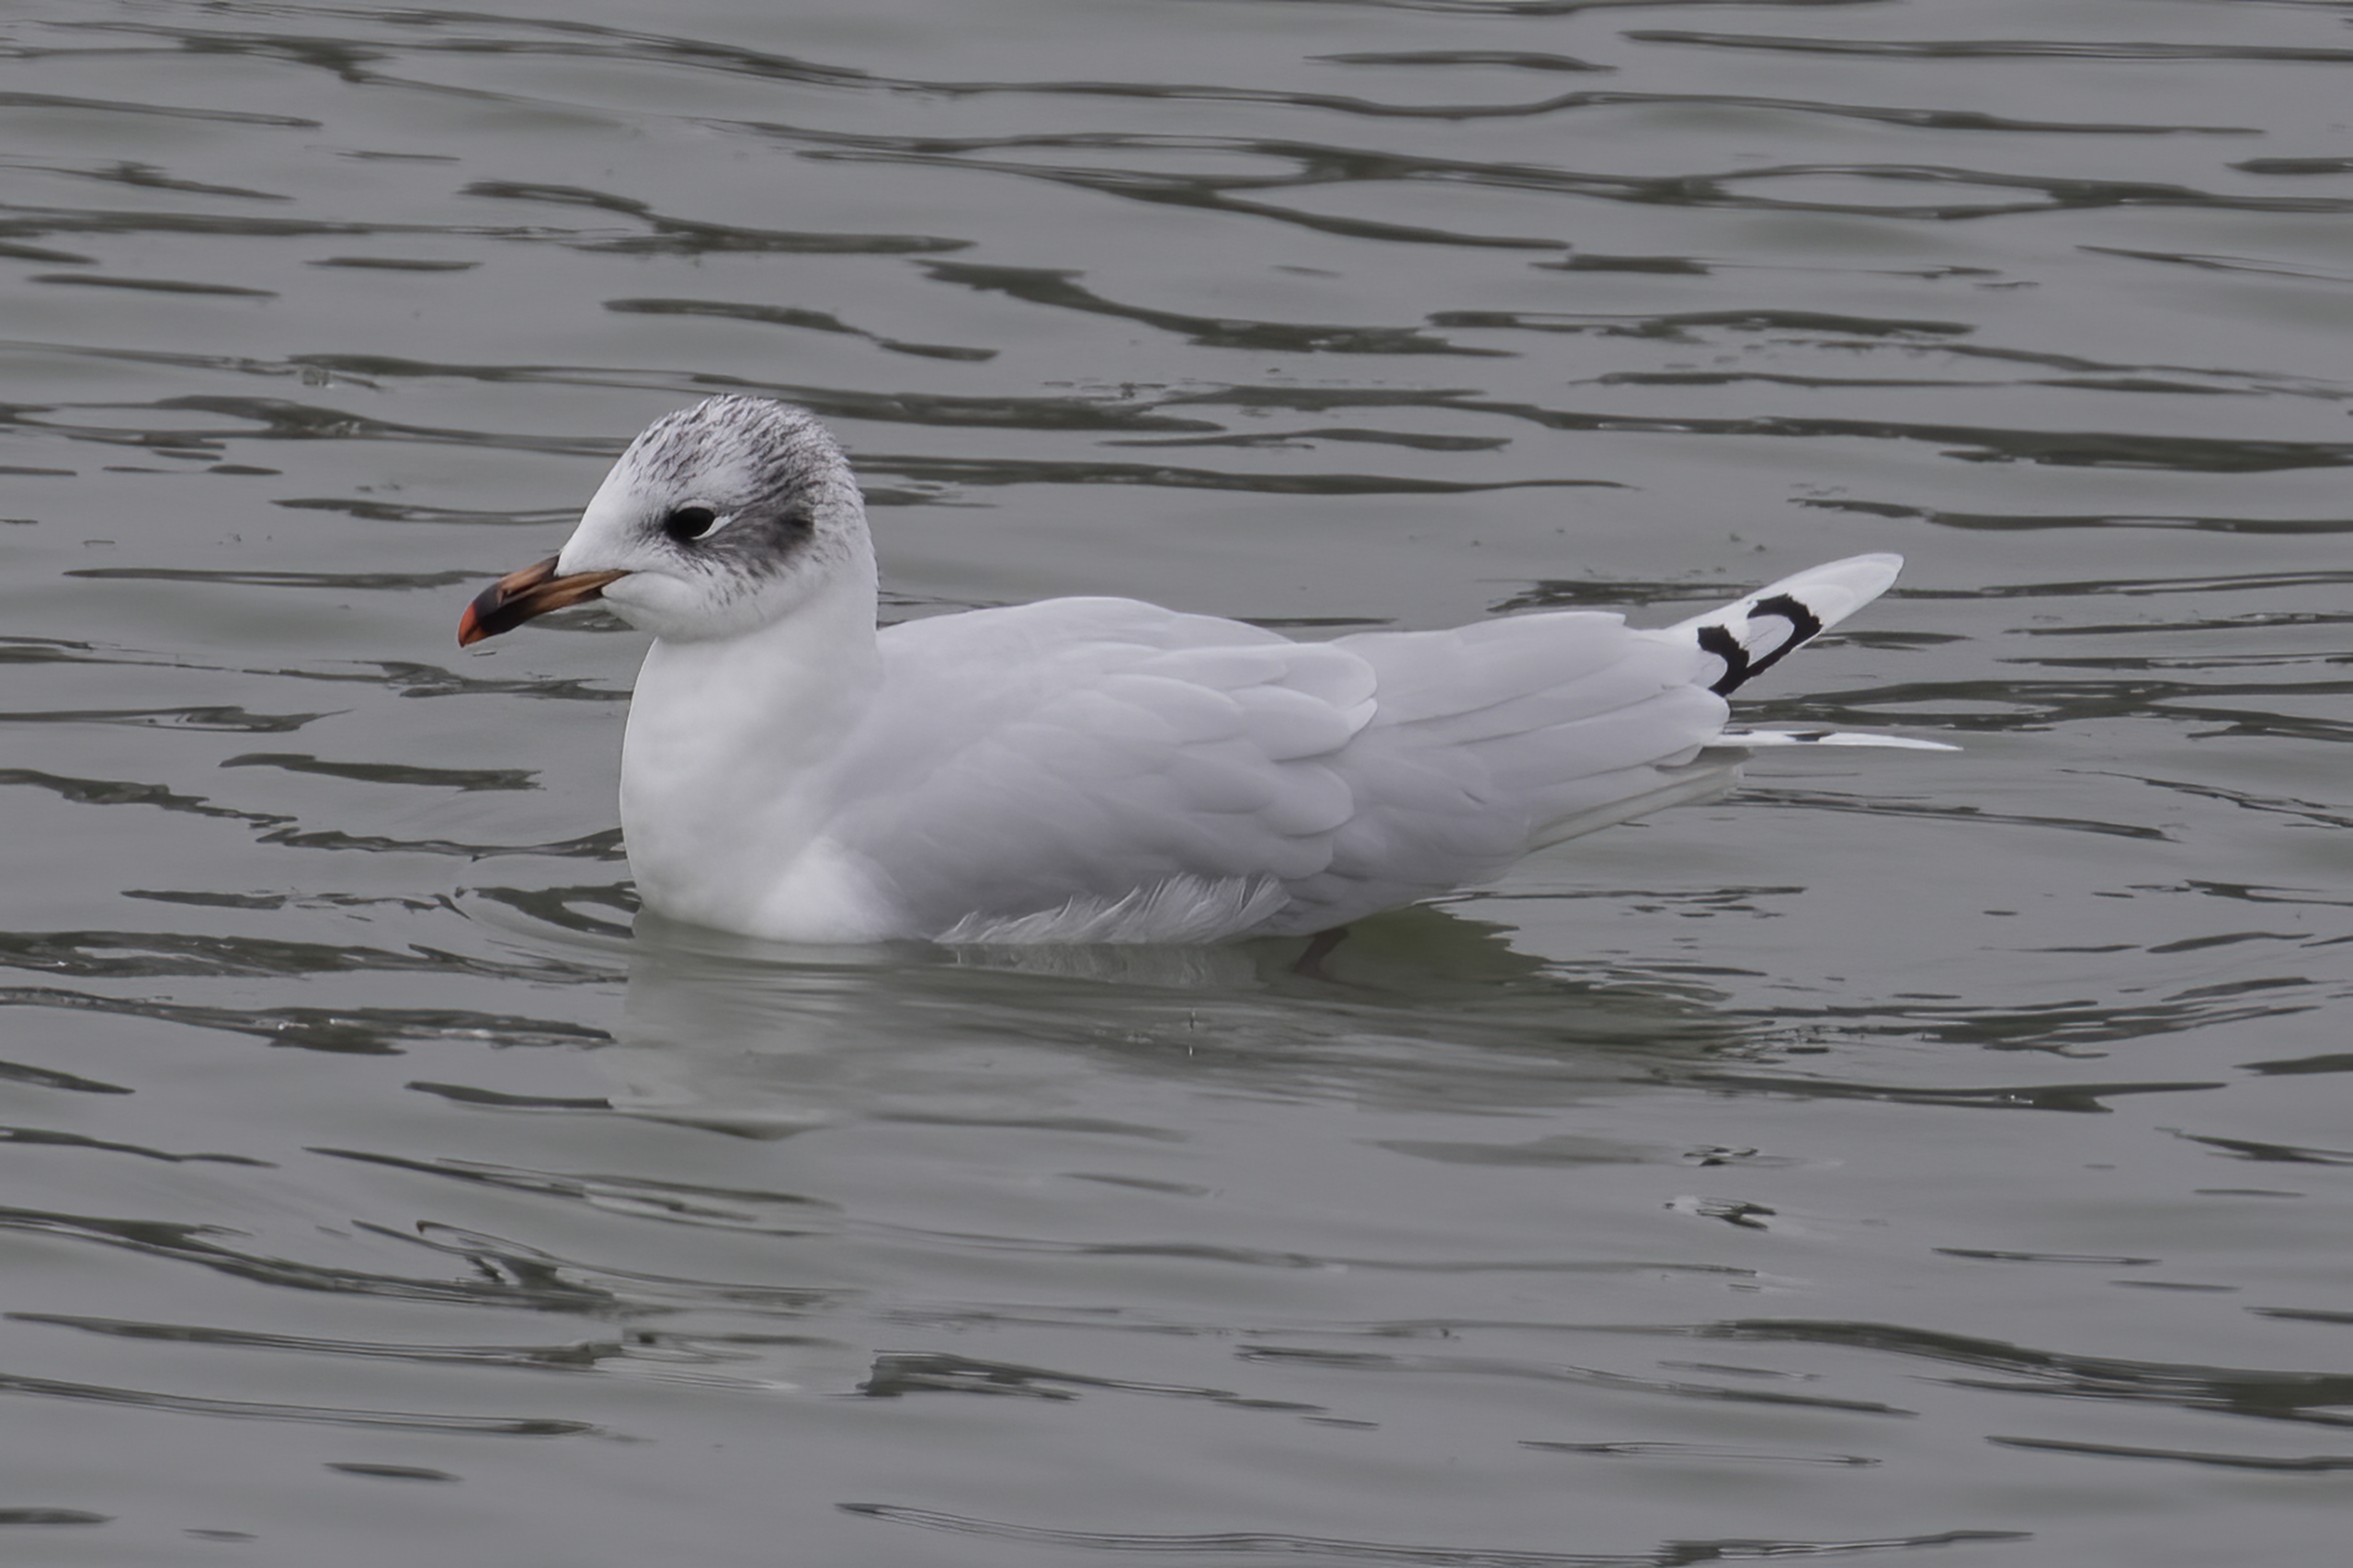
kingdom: Animalia
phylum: Chordata
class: Aves
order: Charadriiformes
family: Laridae
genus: Ichthyaetus
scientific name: Ichthyaetus melanocephalus
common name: Sorthovedet måge
